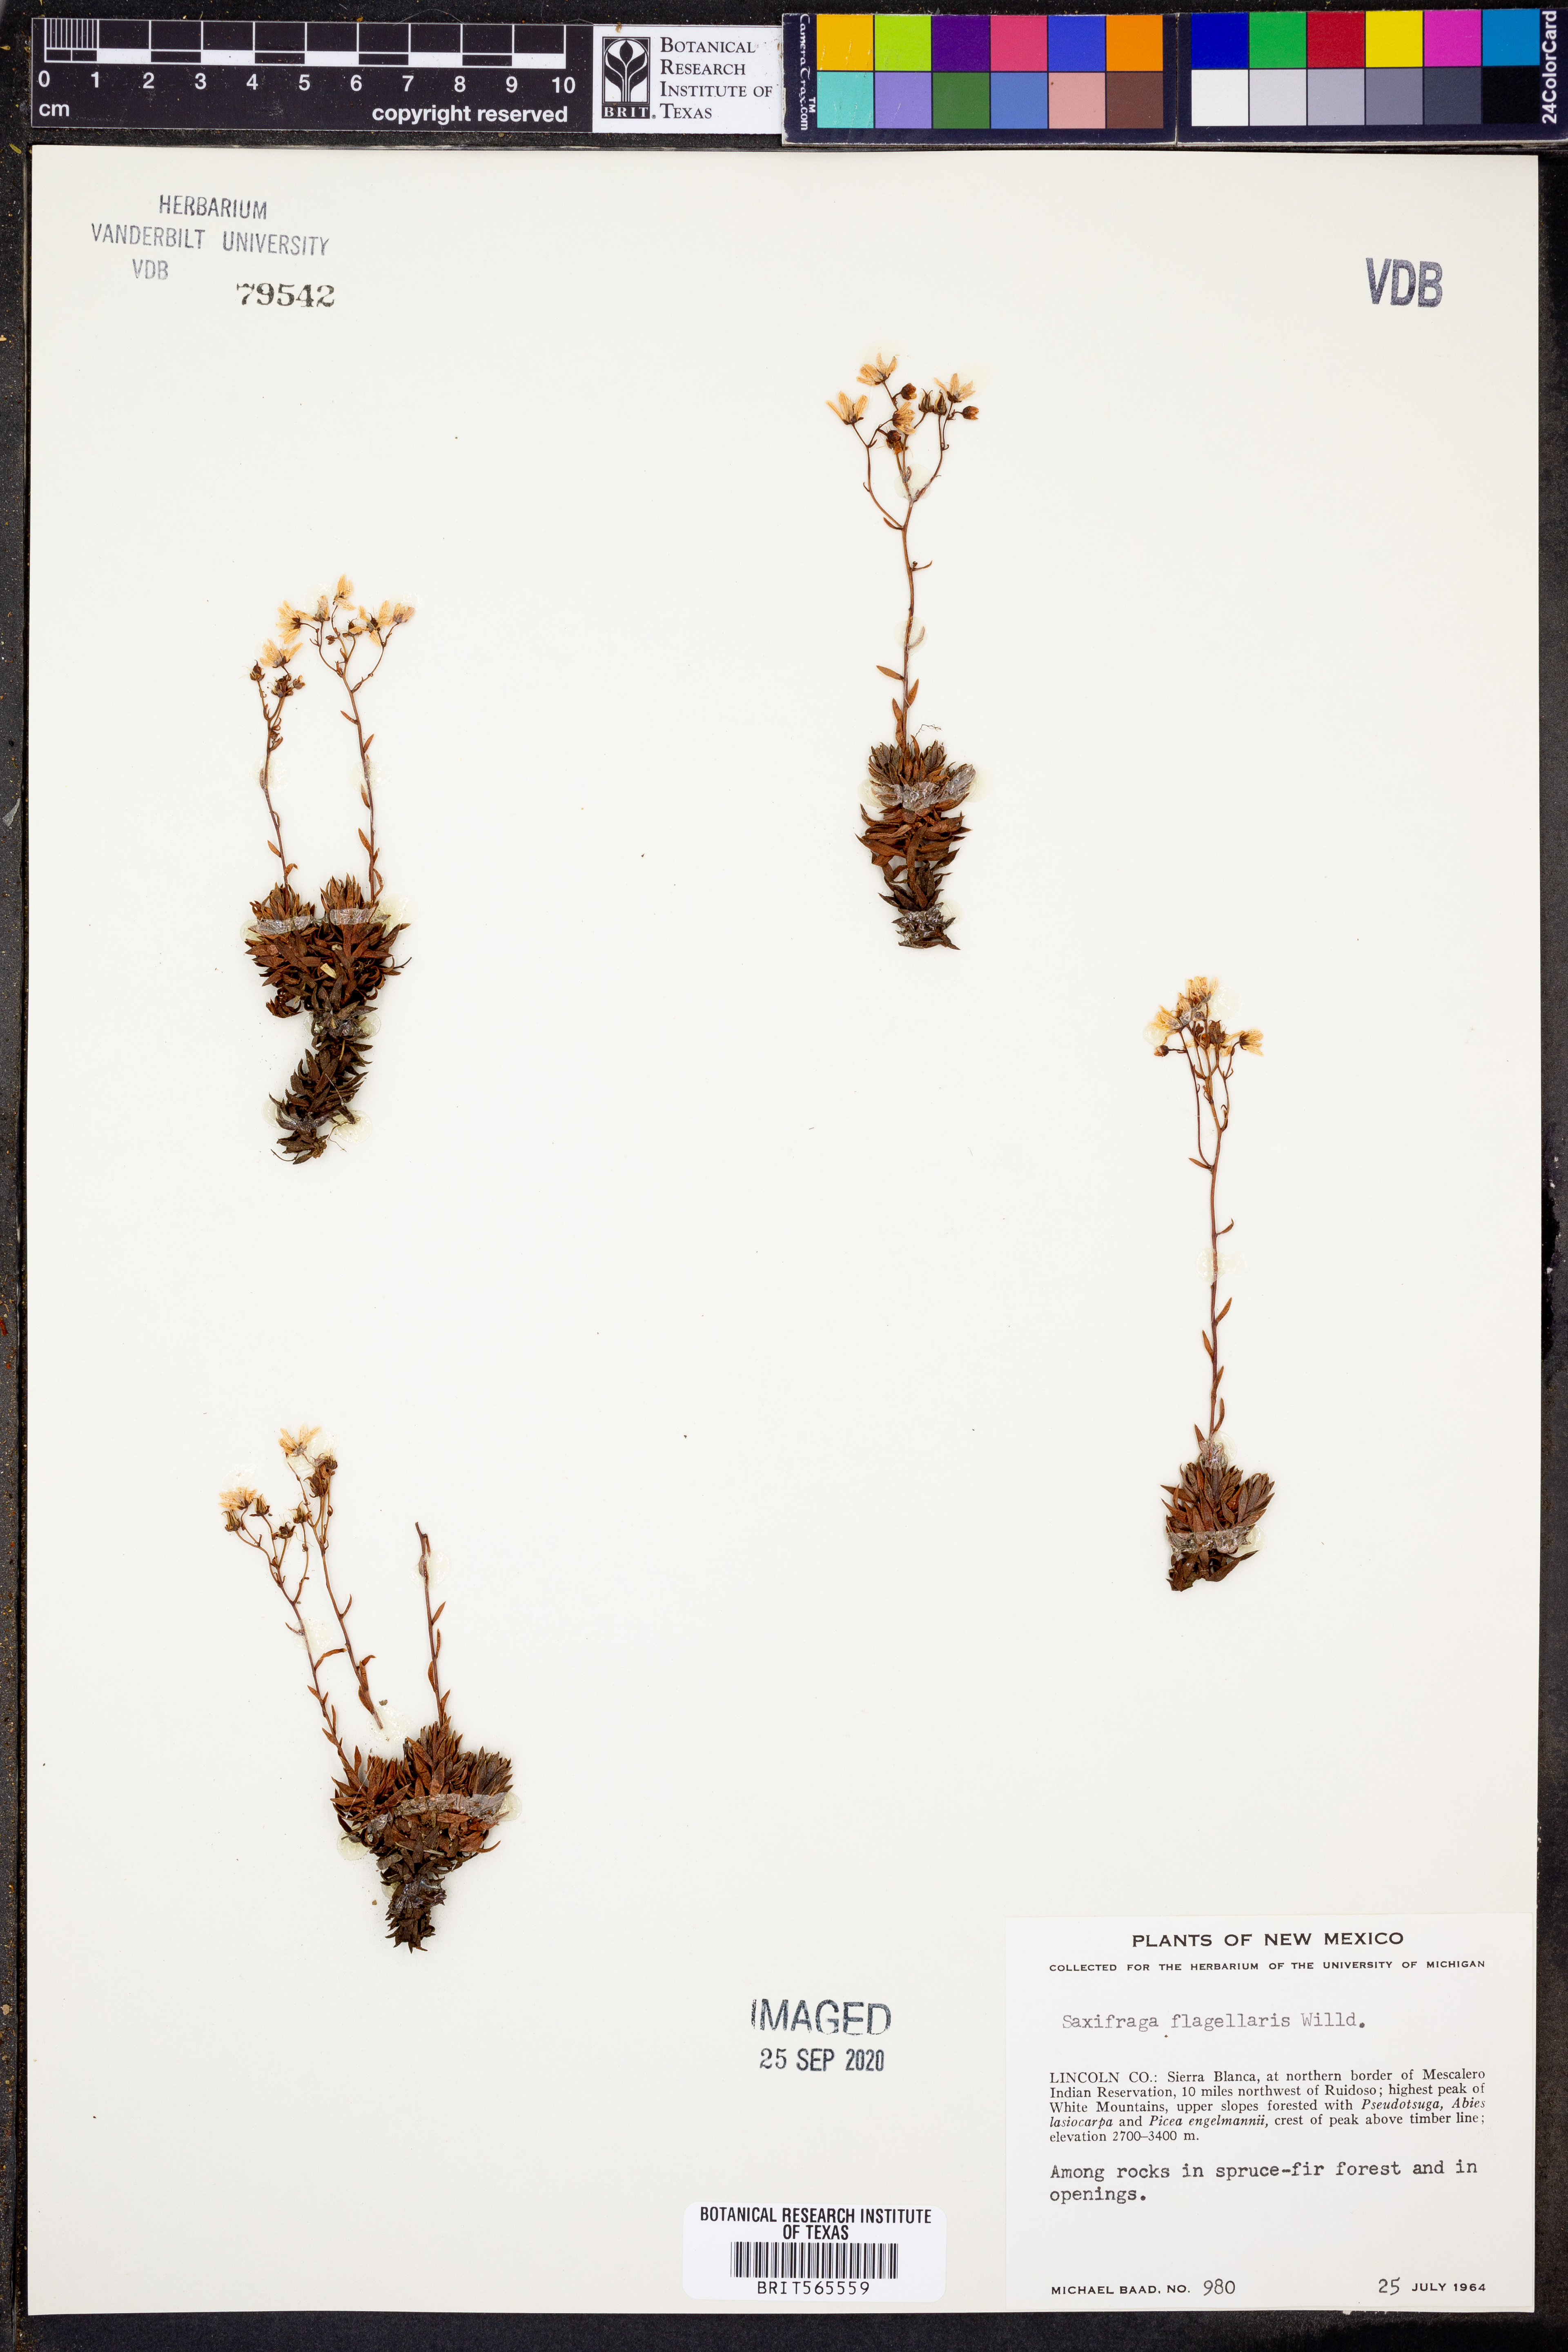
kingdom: Plantae
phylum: Tracheophyta
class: Magnoliopsida
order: Saxifragales
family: Saxifragaceae
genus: Saxifraga
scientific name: Saxifraga flagellaris
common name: Spider saxifrage
